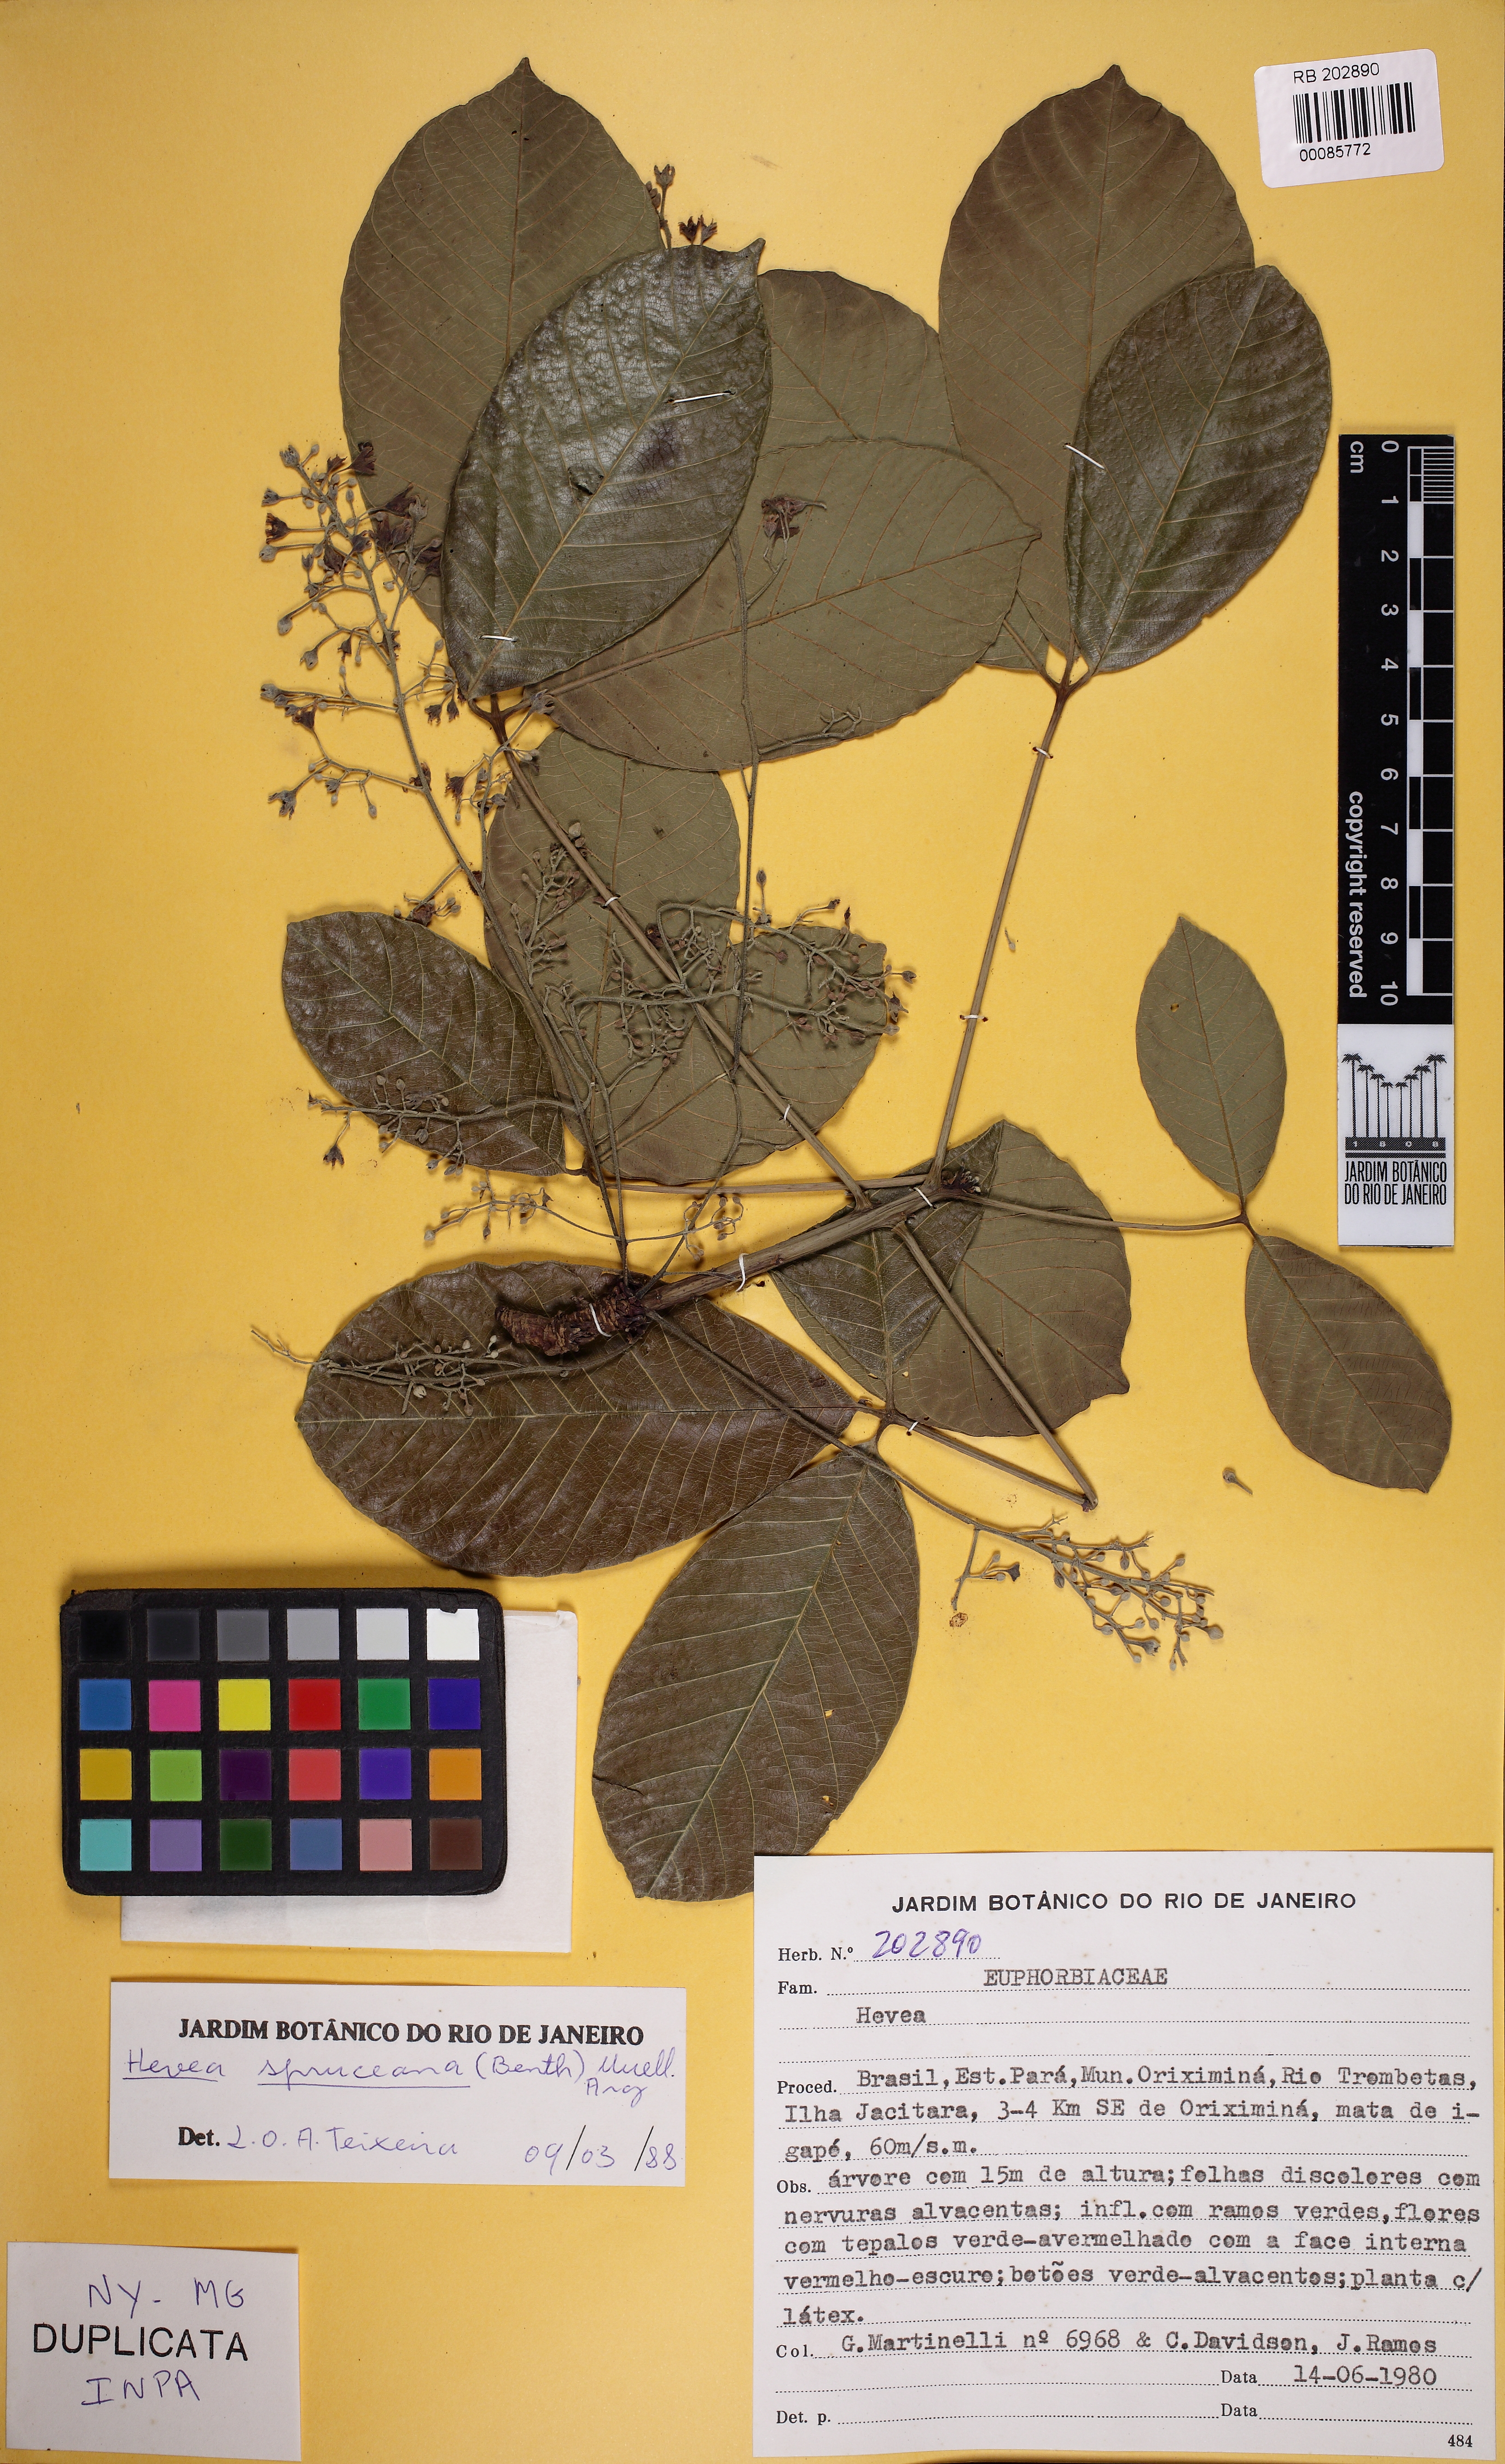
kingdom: Plantae
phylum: Tracheophyta
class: Magnoliopsida
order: Malpighiales
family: Euphorbiaceae
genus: Hevea
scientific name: Hevea spruceana
